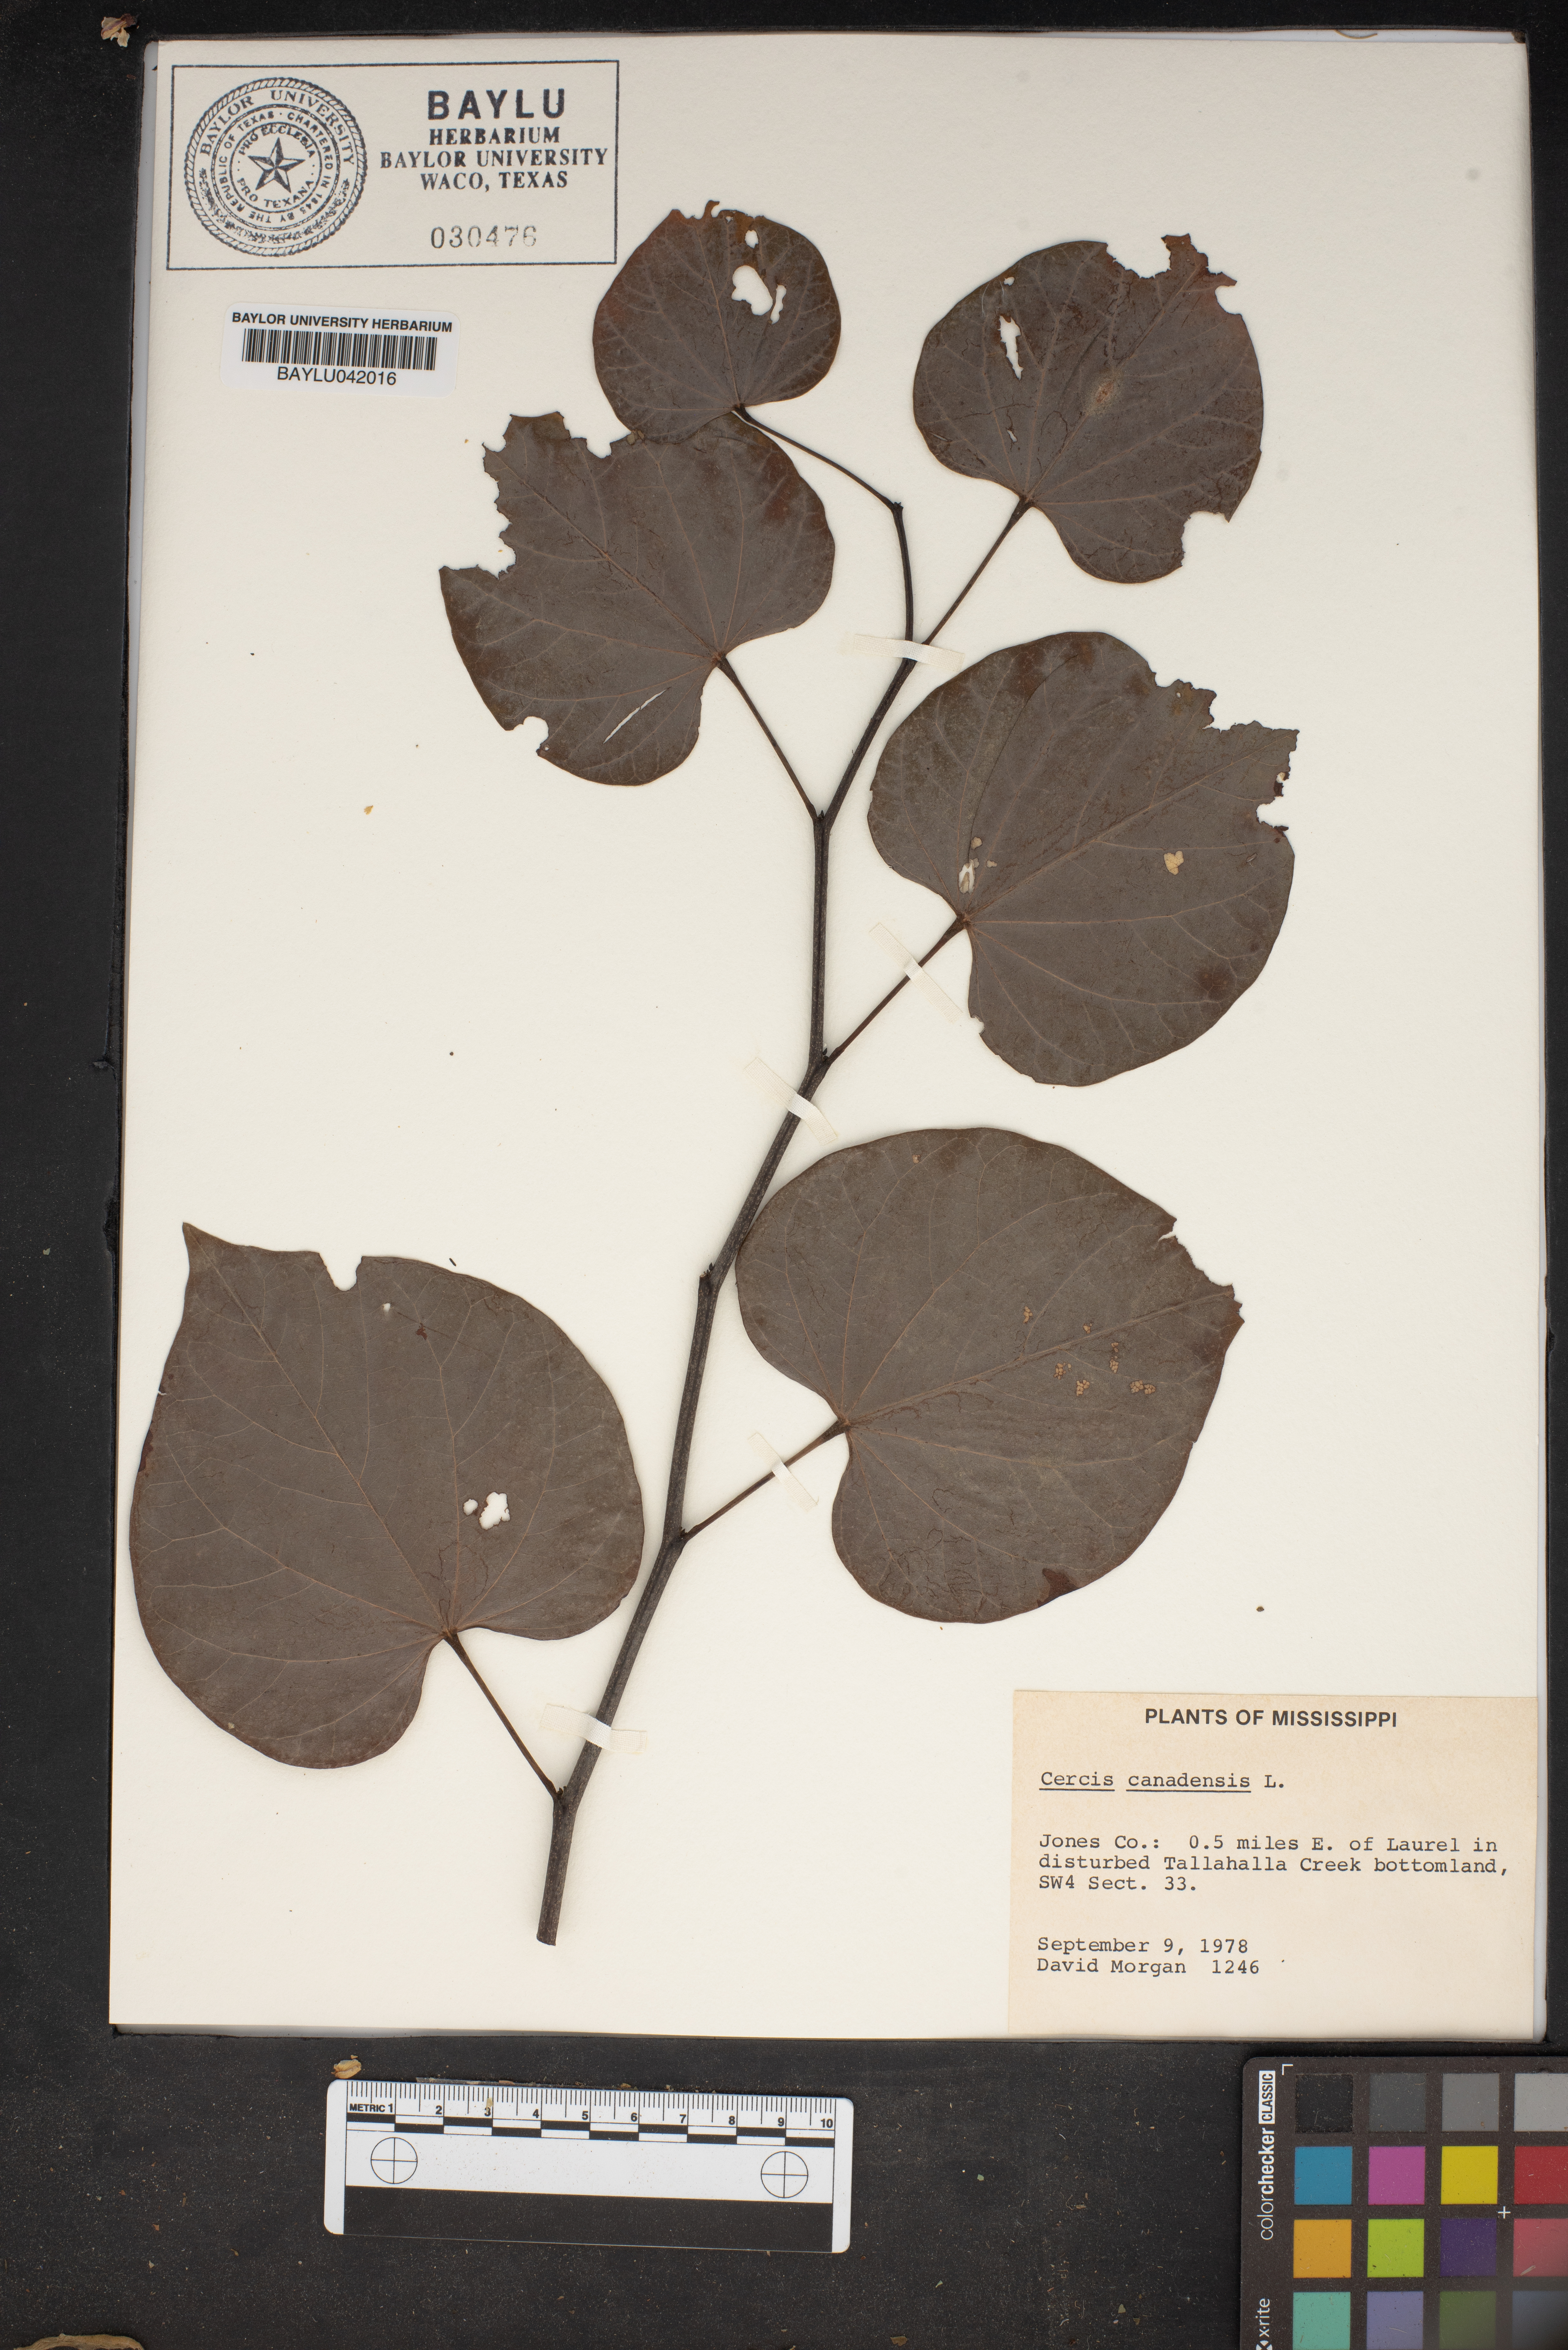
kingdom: Plantae
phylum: Tracheophyta
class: Magnoliopsida
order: Fabales
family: Fabaceae
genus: Cercis
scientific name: Cercis canadensis
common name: Eastern redbud
